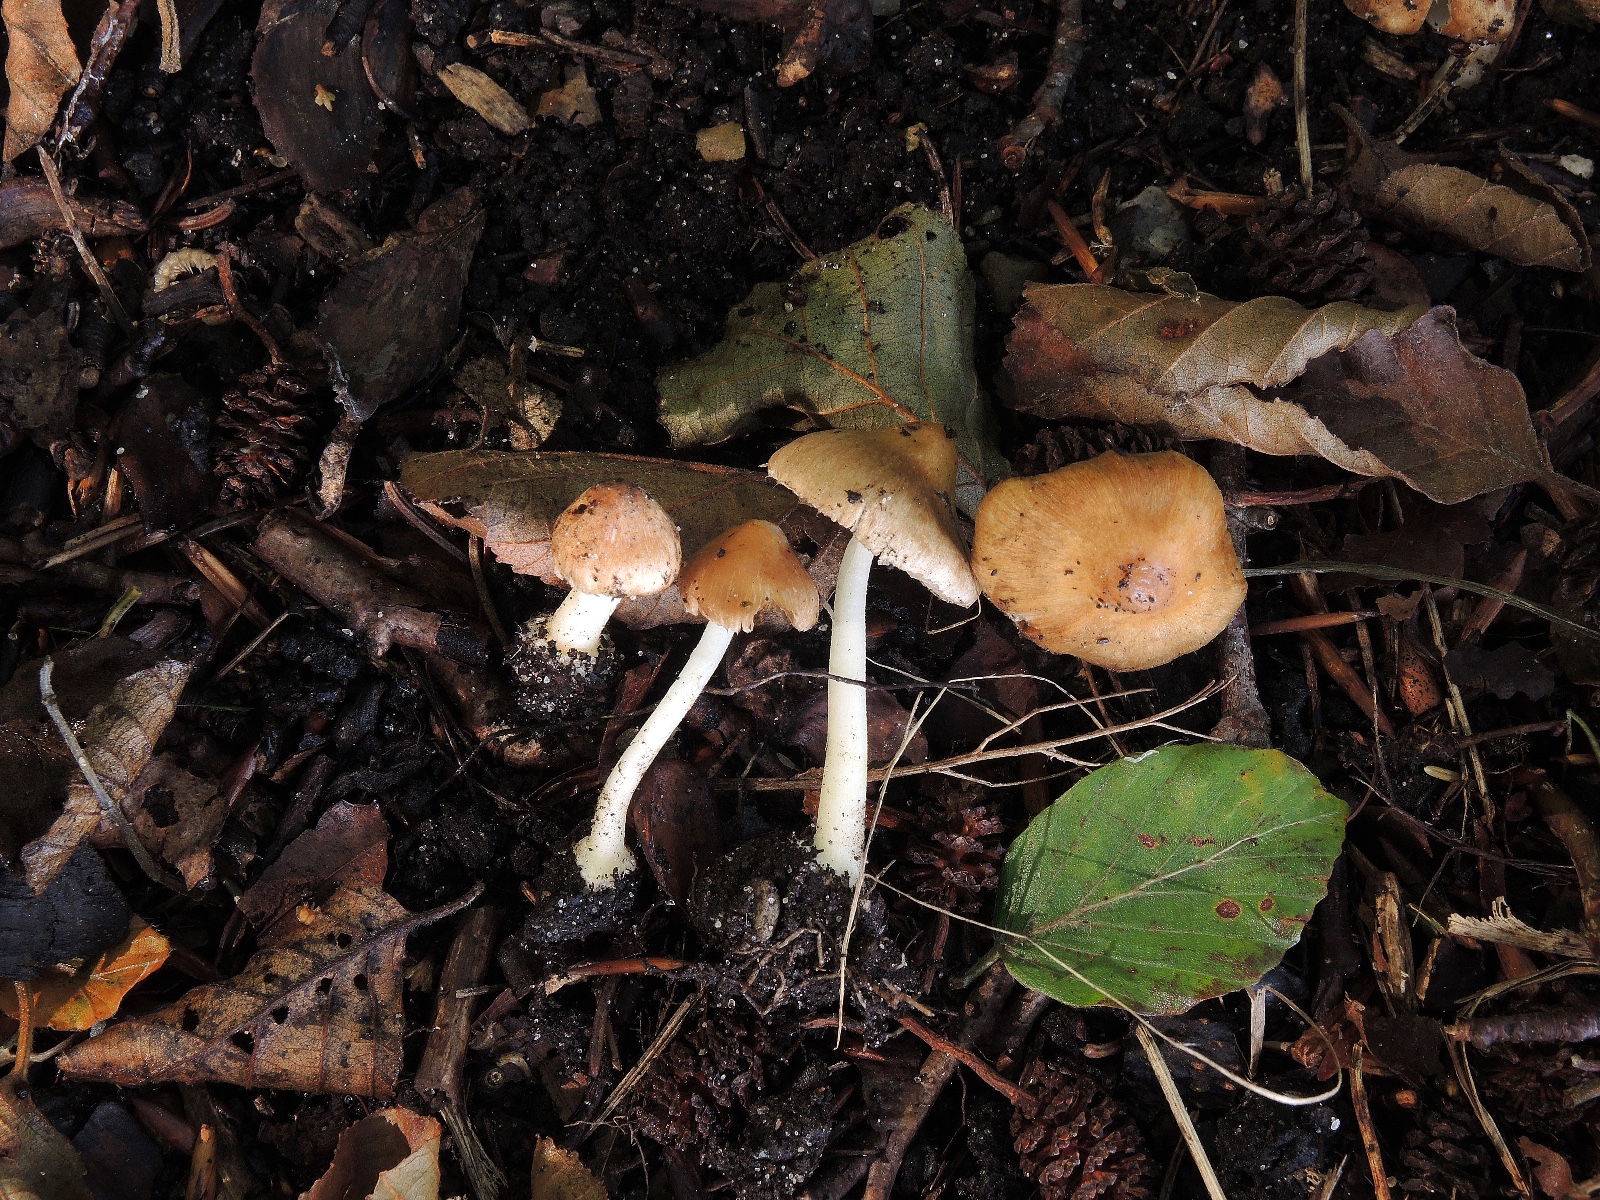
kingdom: Fungi
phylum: Basidiomycota
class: Agaricomycetes
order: Agaricales
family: Inocybaceae
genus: Inocybe
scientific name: Inocybe mixtilis
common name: randknoldet trævlhat
